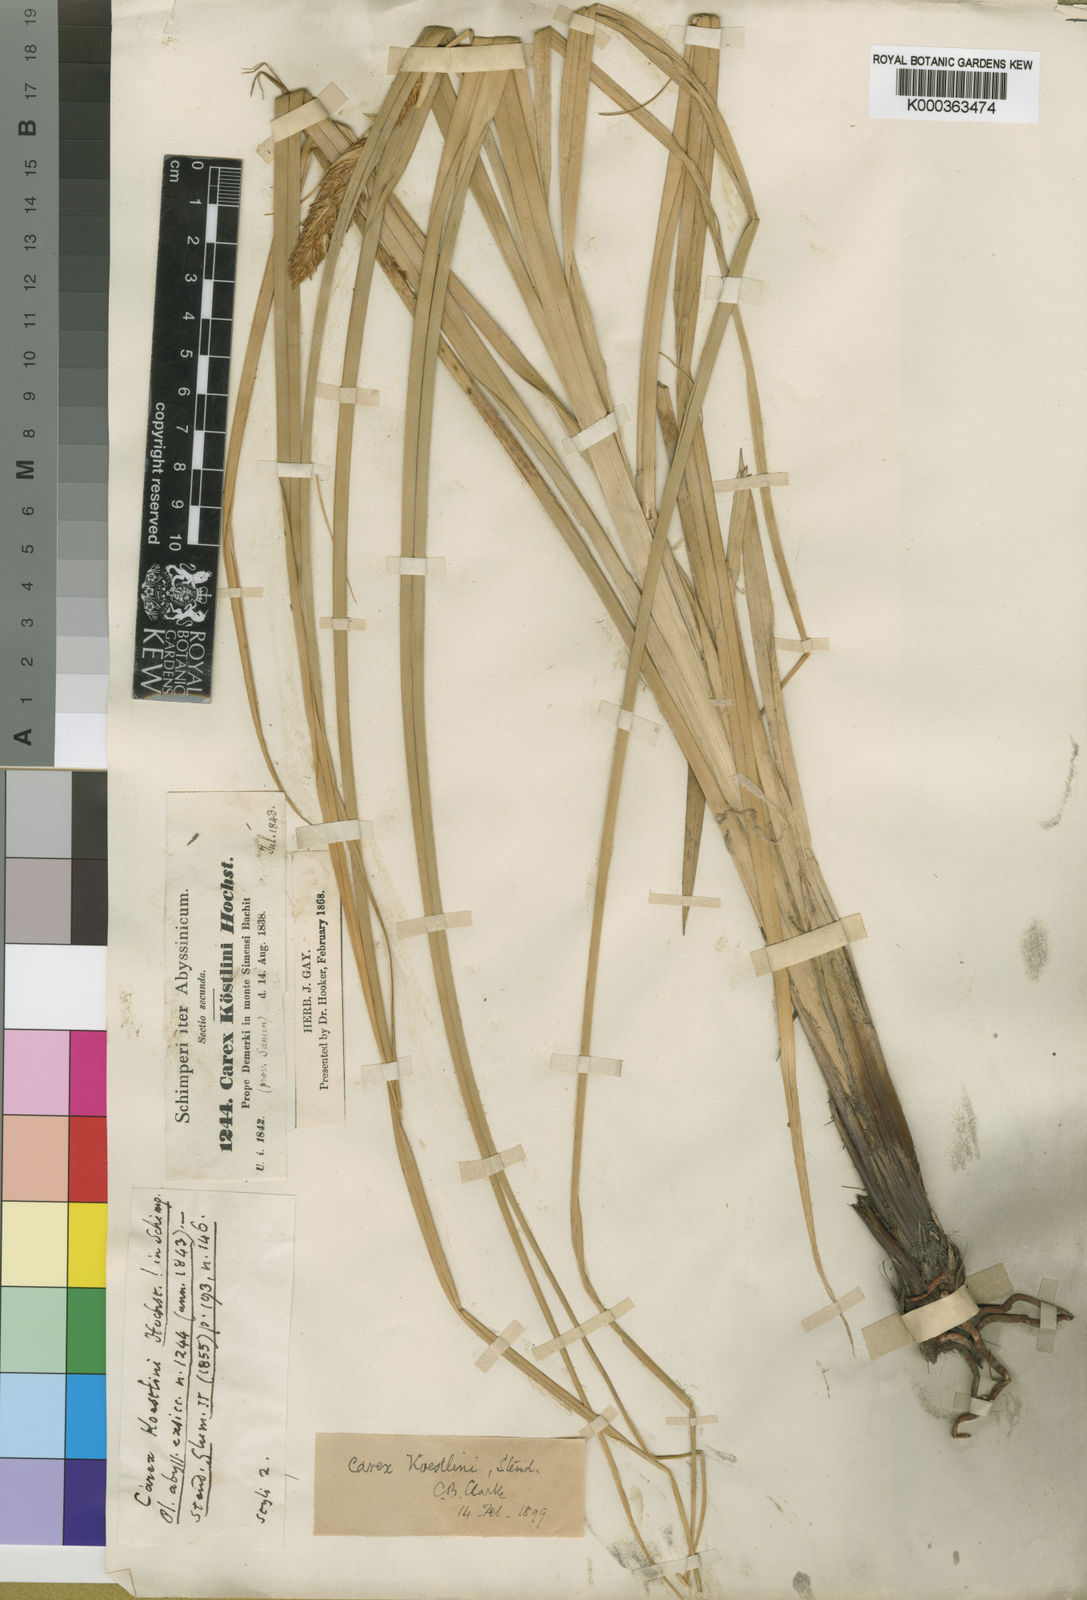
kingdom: Plantae
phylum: Tracheophyta
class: Liliopsida
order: Poales
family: Cyperaceae
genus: Carex
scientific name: Carex koestlinii
